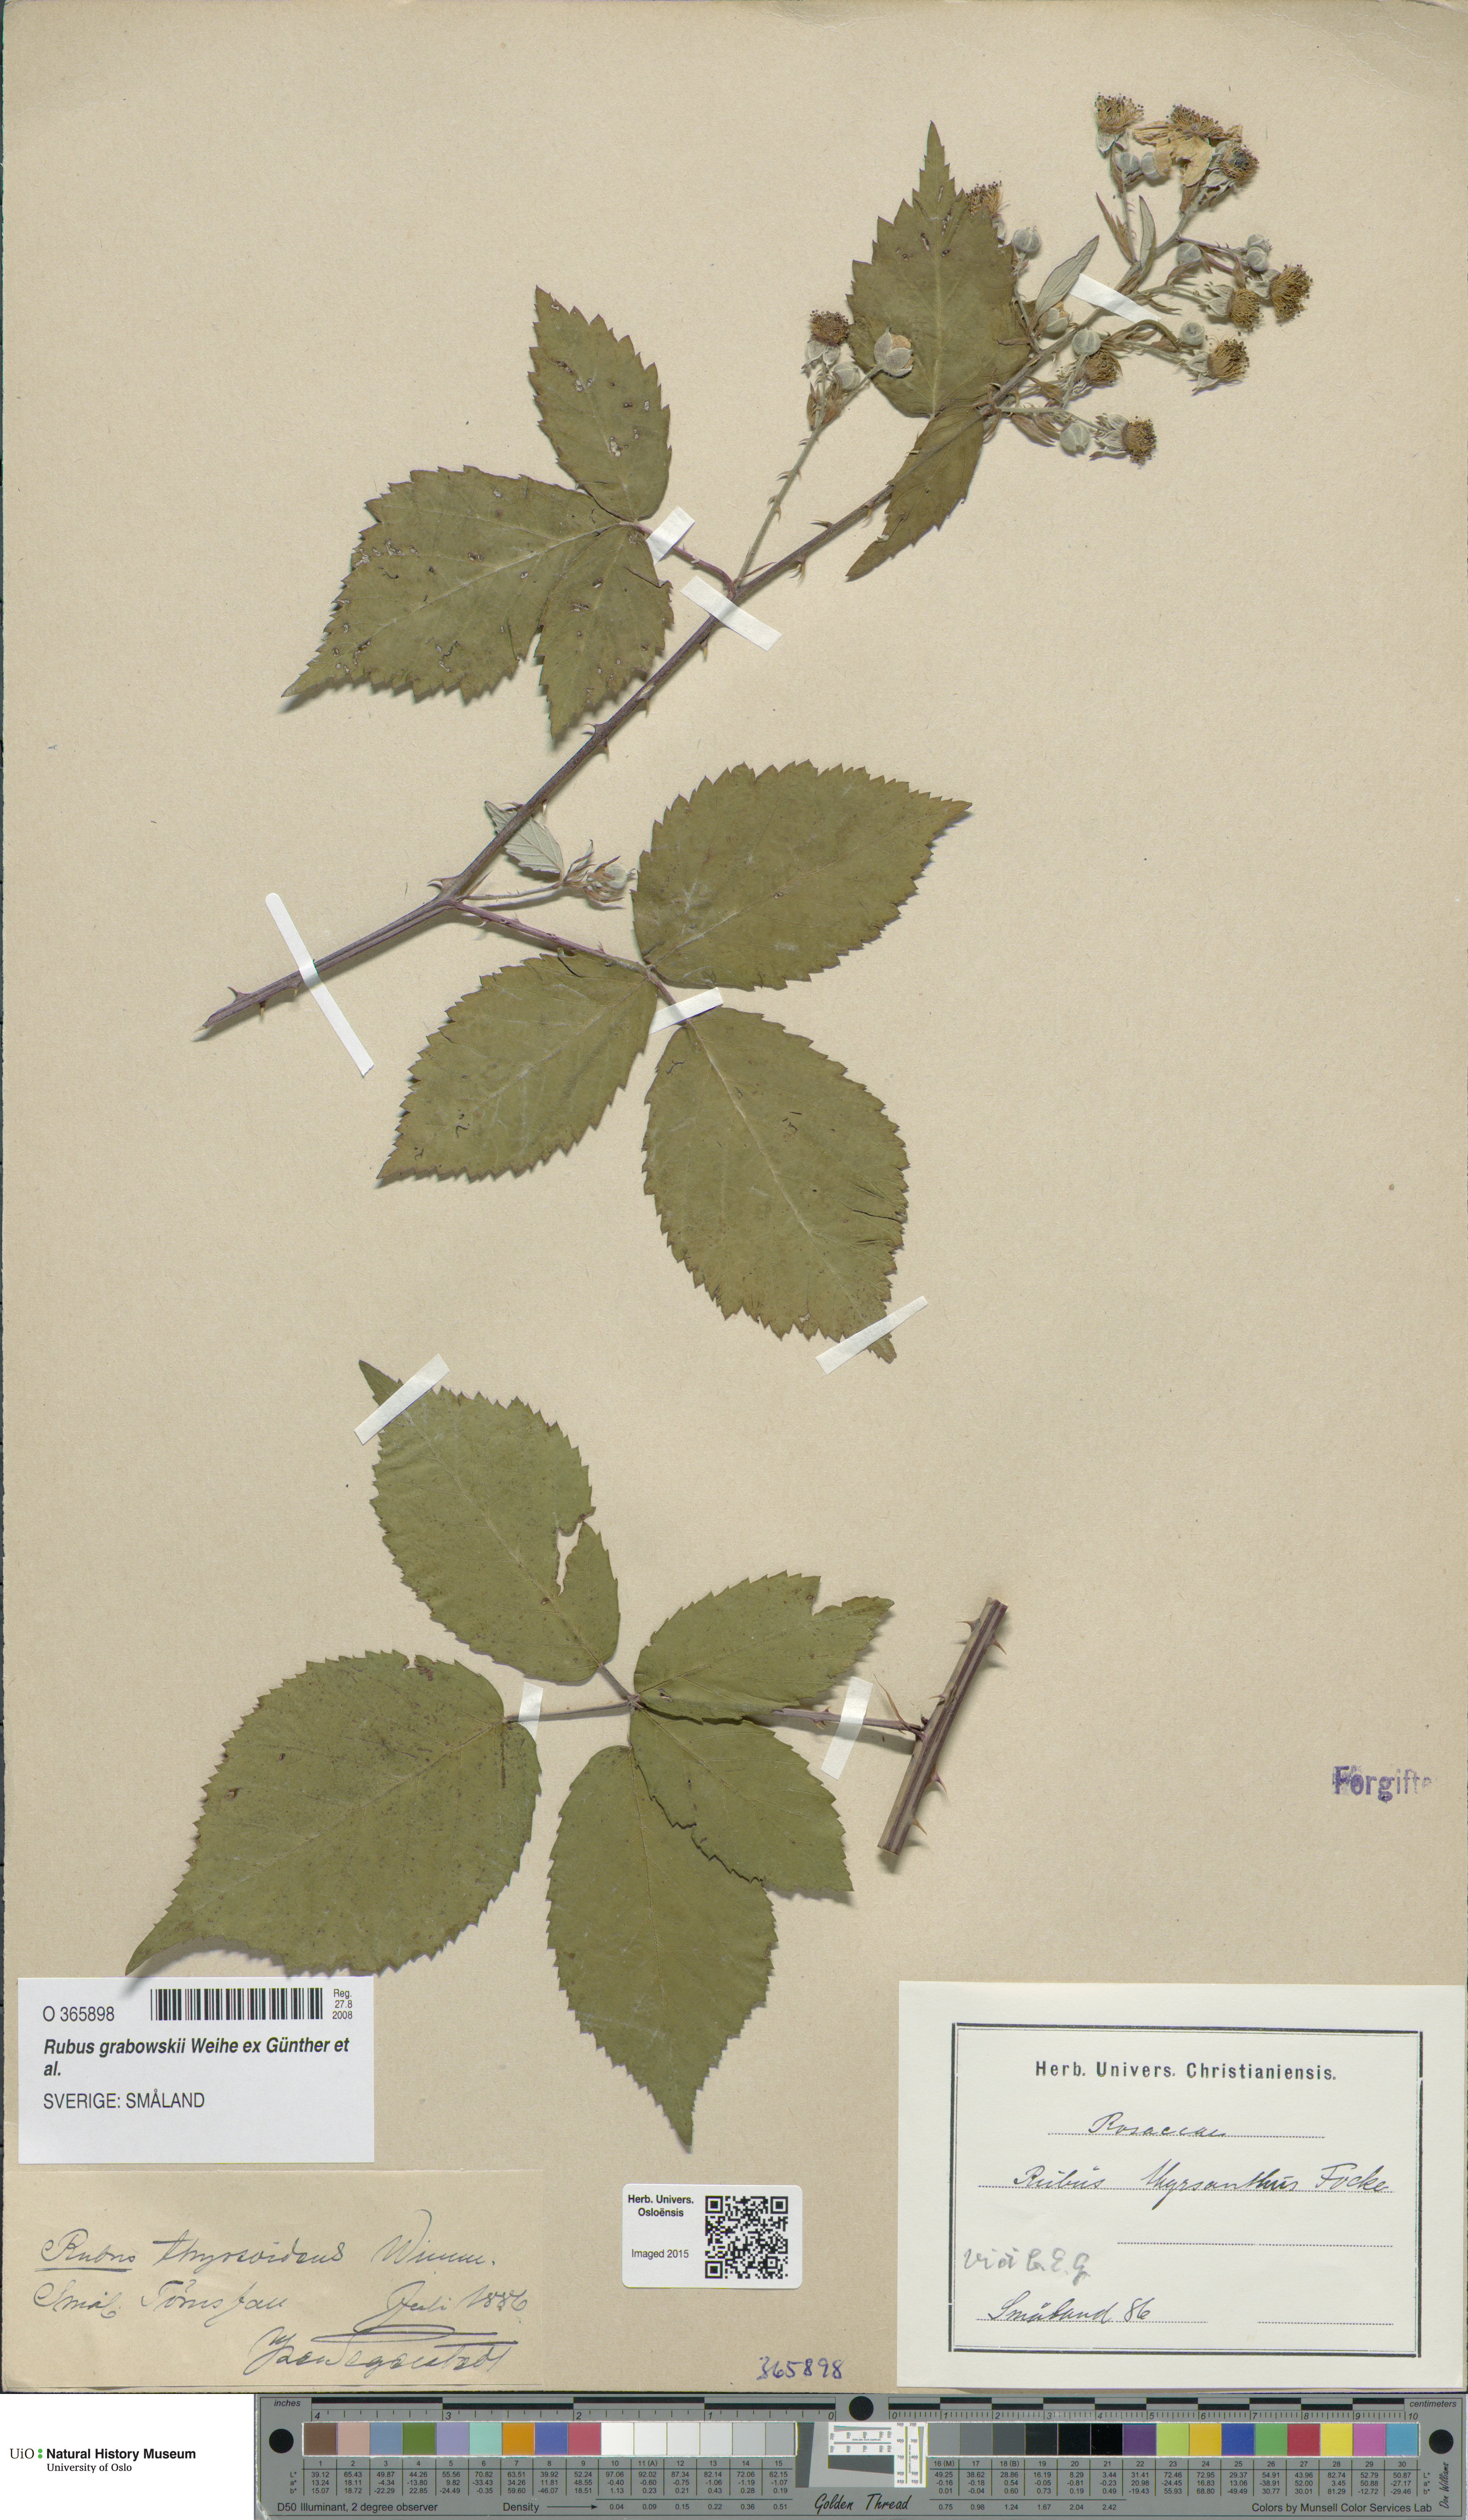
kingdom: Plantae
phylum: Tracheophyta
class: Magnoliopsida
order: Rosales
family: Rosaceae
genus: Rubus
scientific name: Rubus grabowskii
